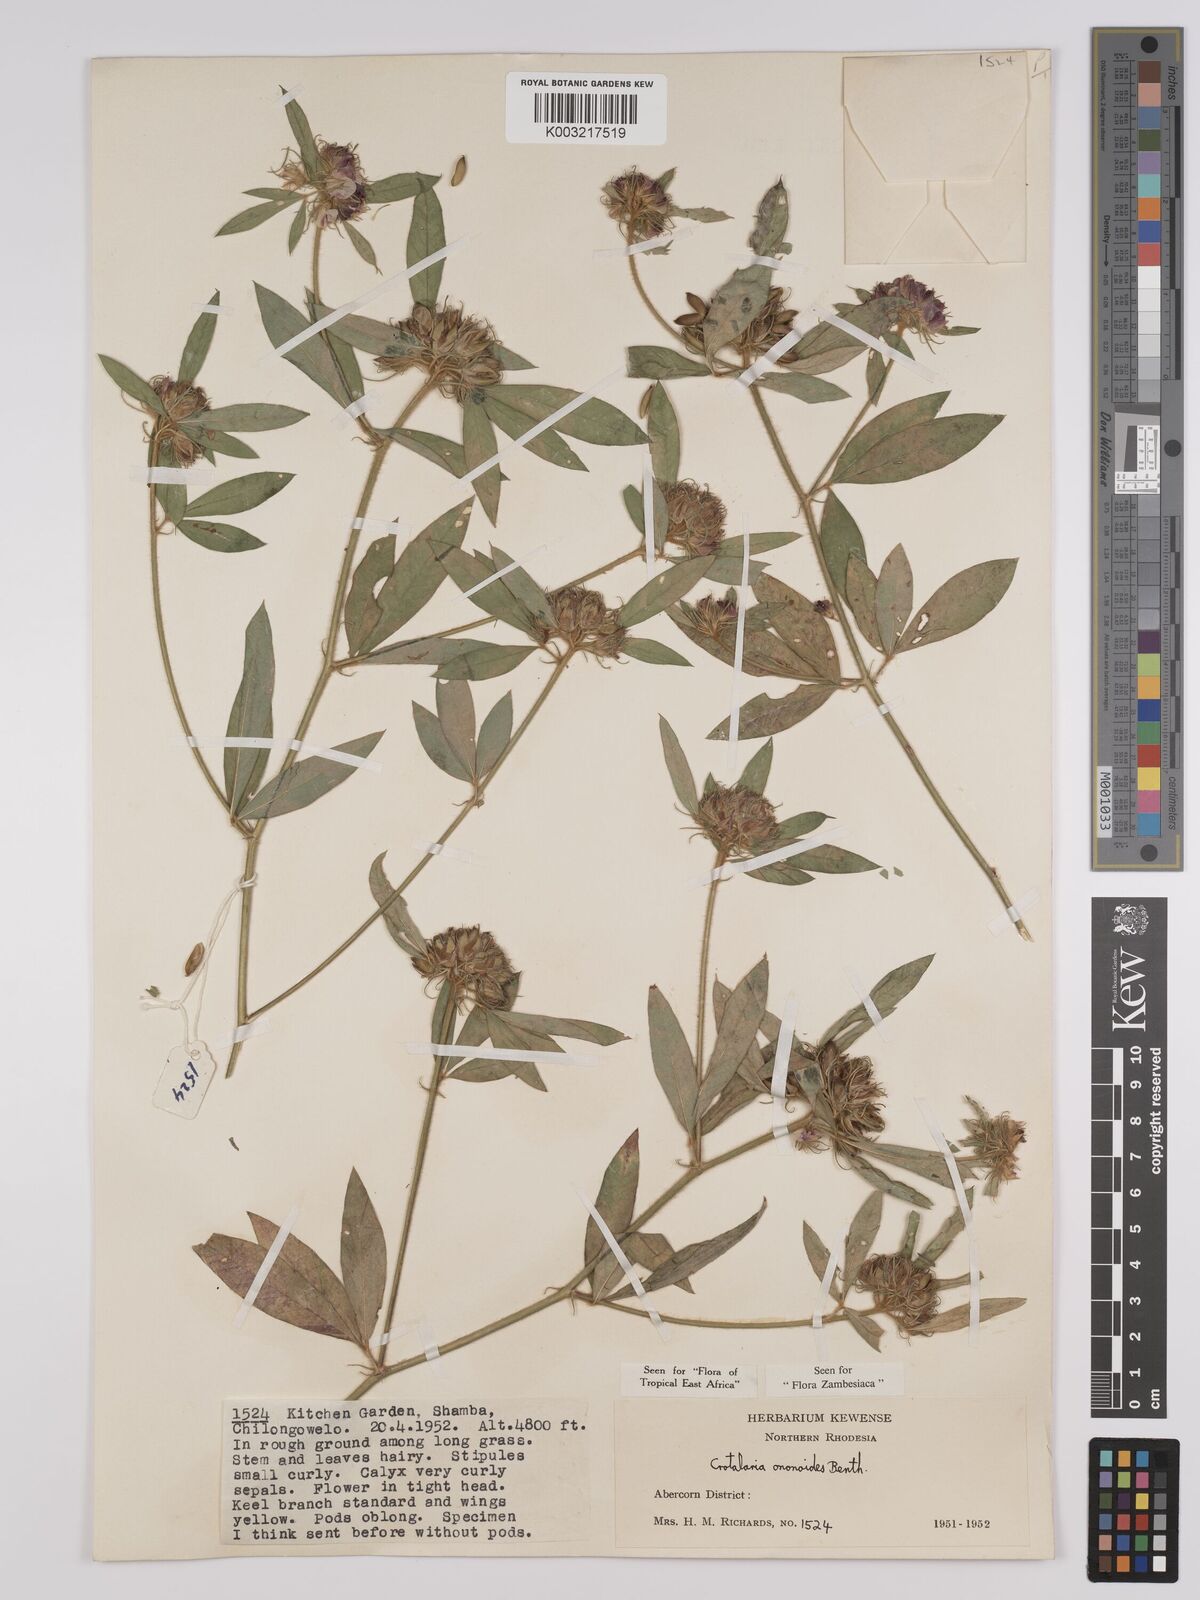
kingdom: Plantae
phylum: Tracheophyta
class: Magnoliopsida
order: Fabales
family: Fabaceae
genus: Crotalaria
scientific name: Crotalaria ononoides
